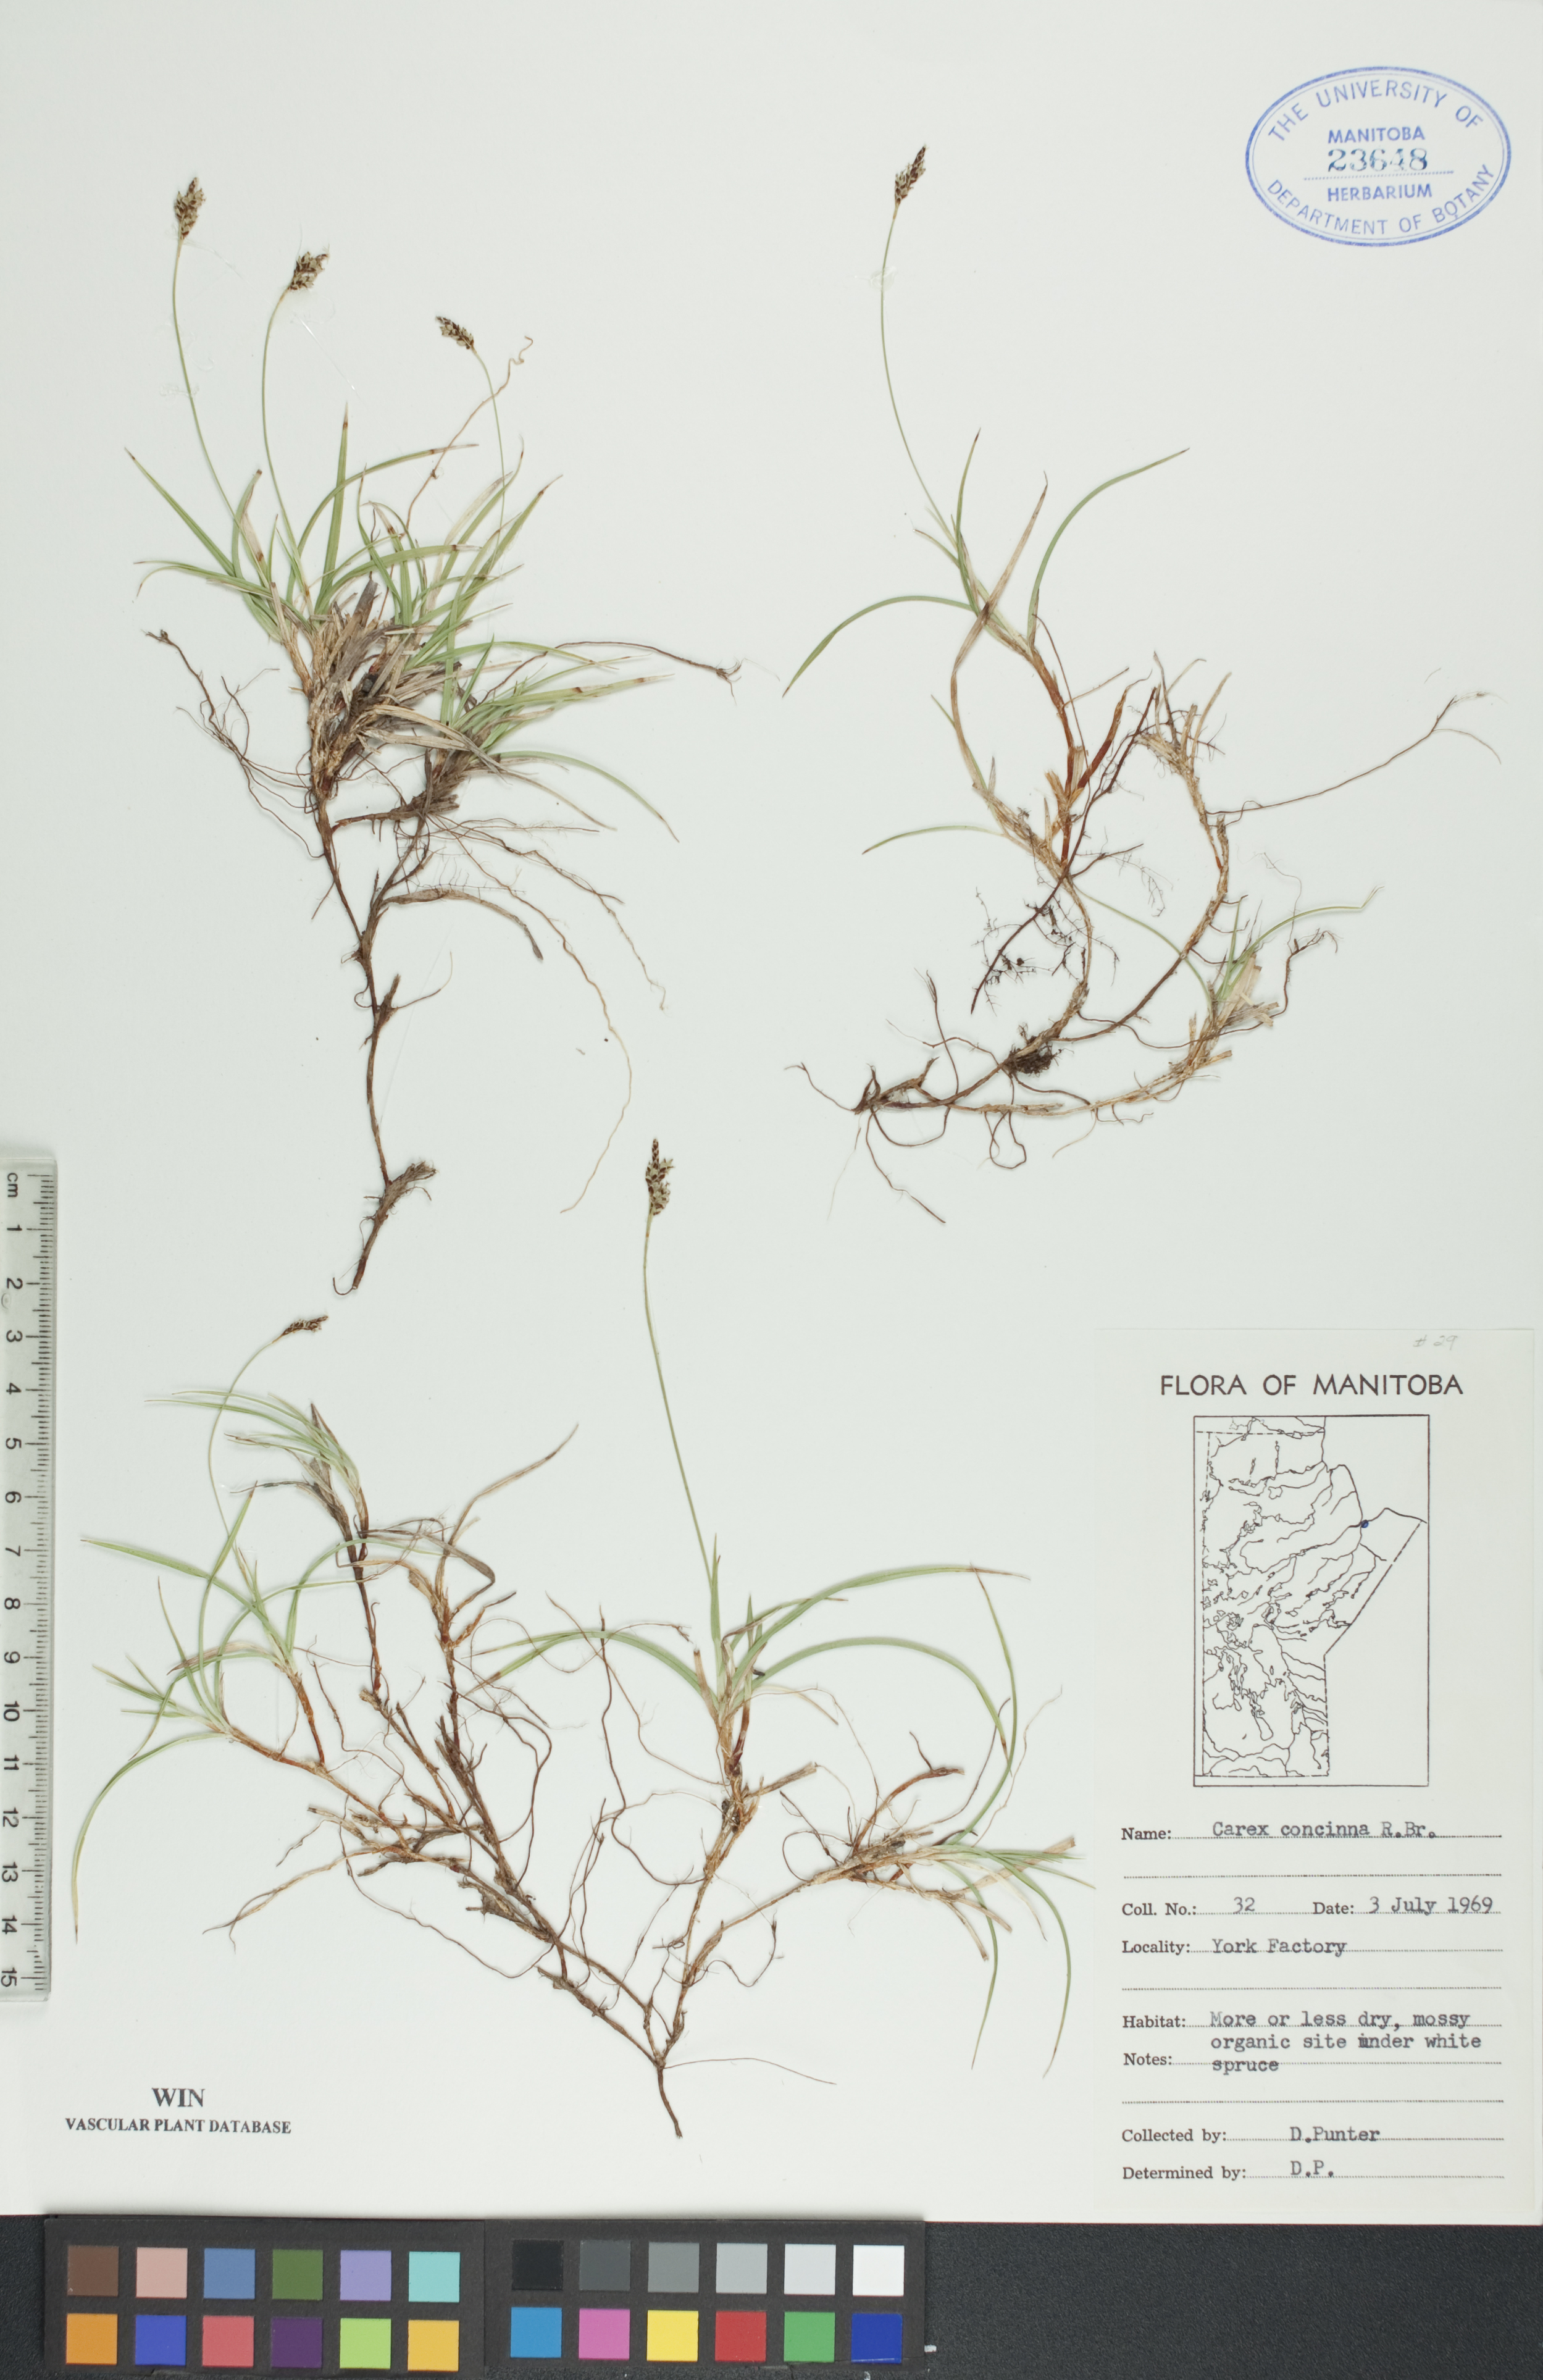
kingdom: Plantae
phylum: Tracheophyta
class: Liliopsida
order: Poales
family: Cyperaceae
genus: Carex
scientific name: Carex concinna
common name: Beautiful sedge
